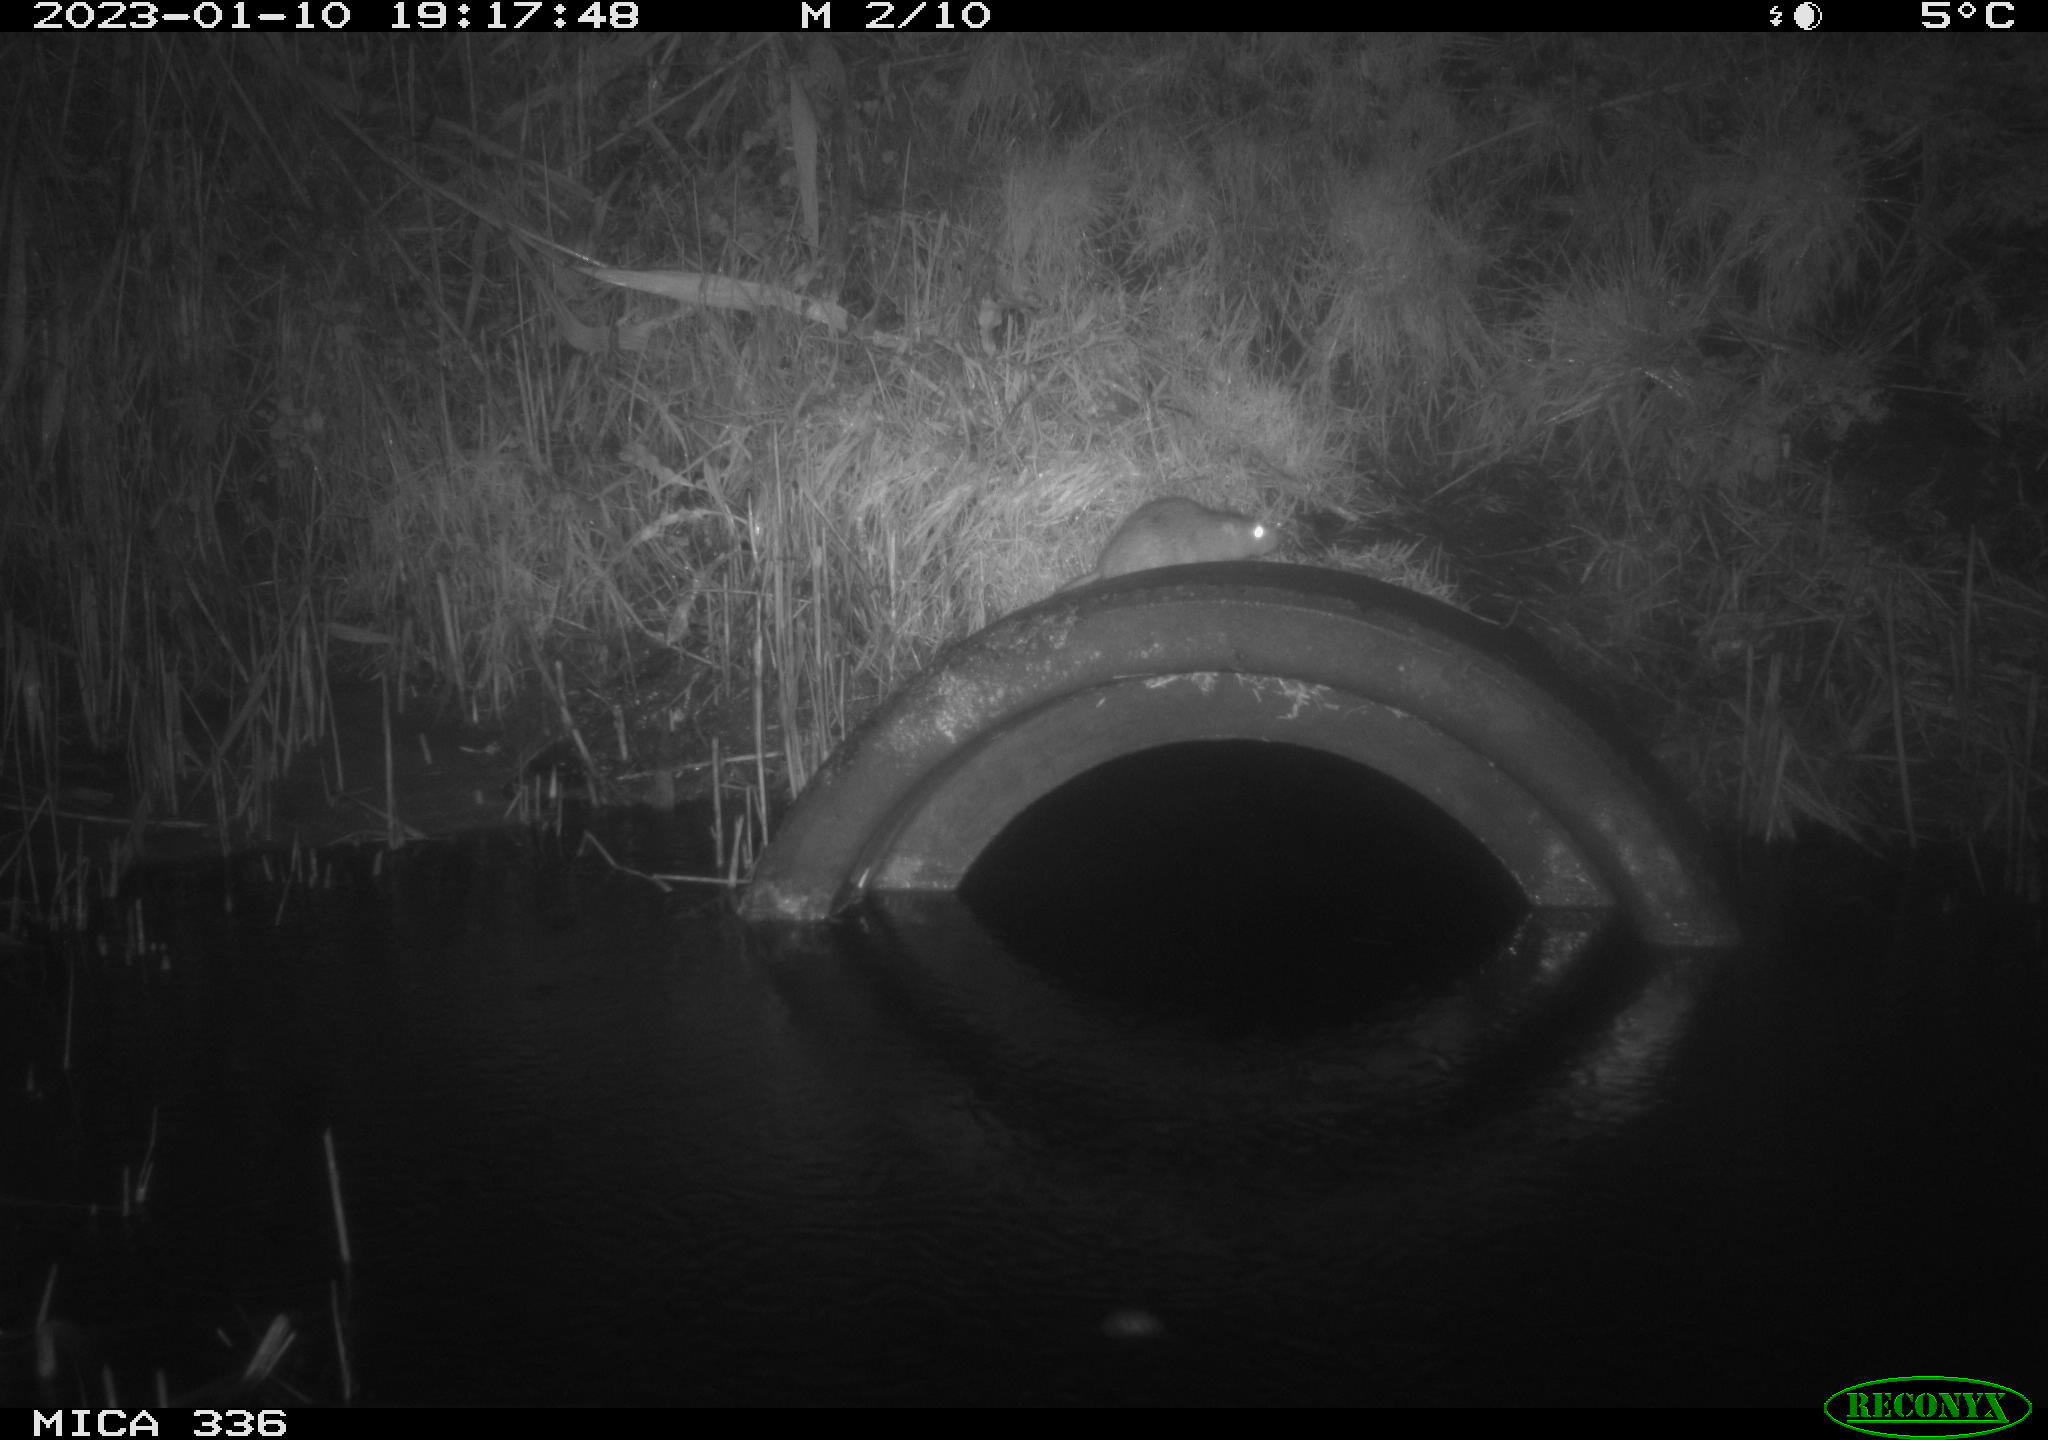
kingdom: Animalia
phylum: Chordata
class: Mammalia
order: Rodentia
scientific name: Rodentia
